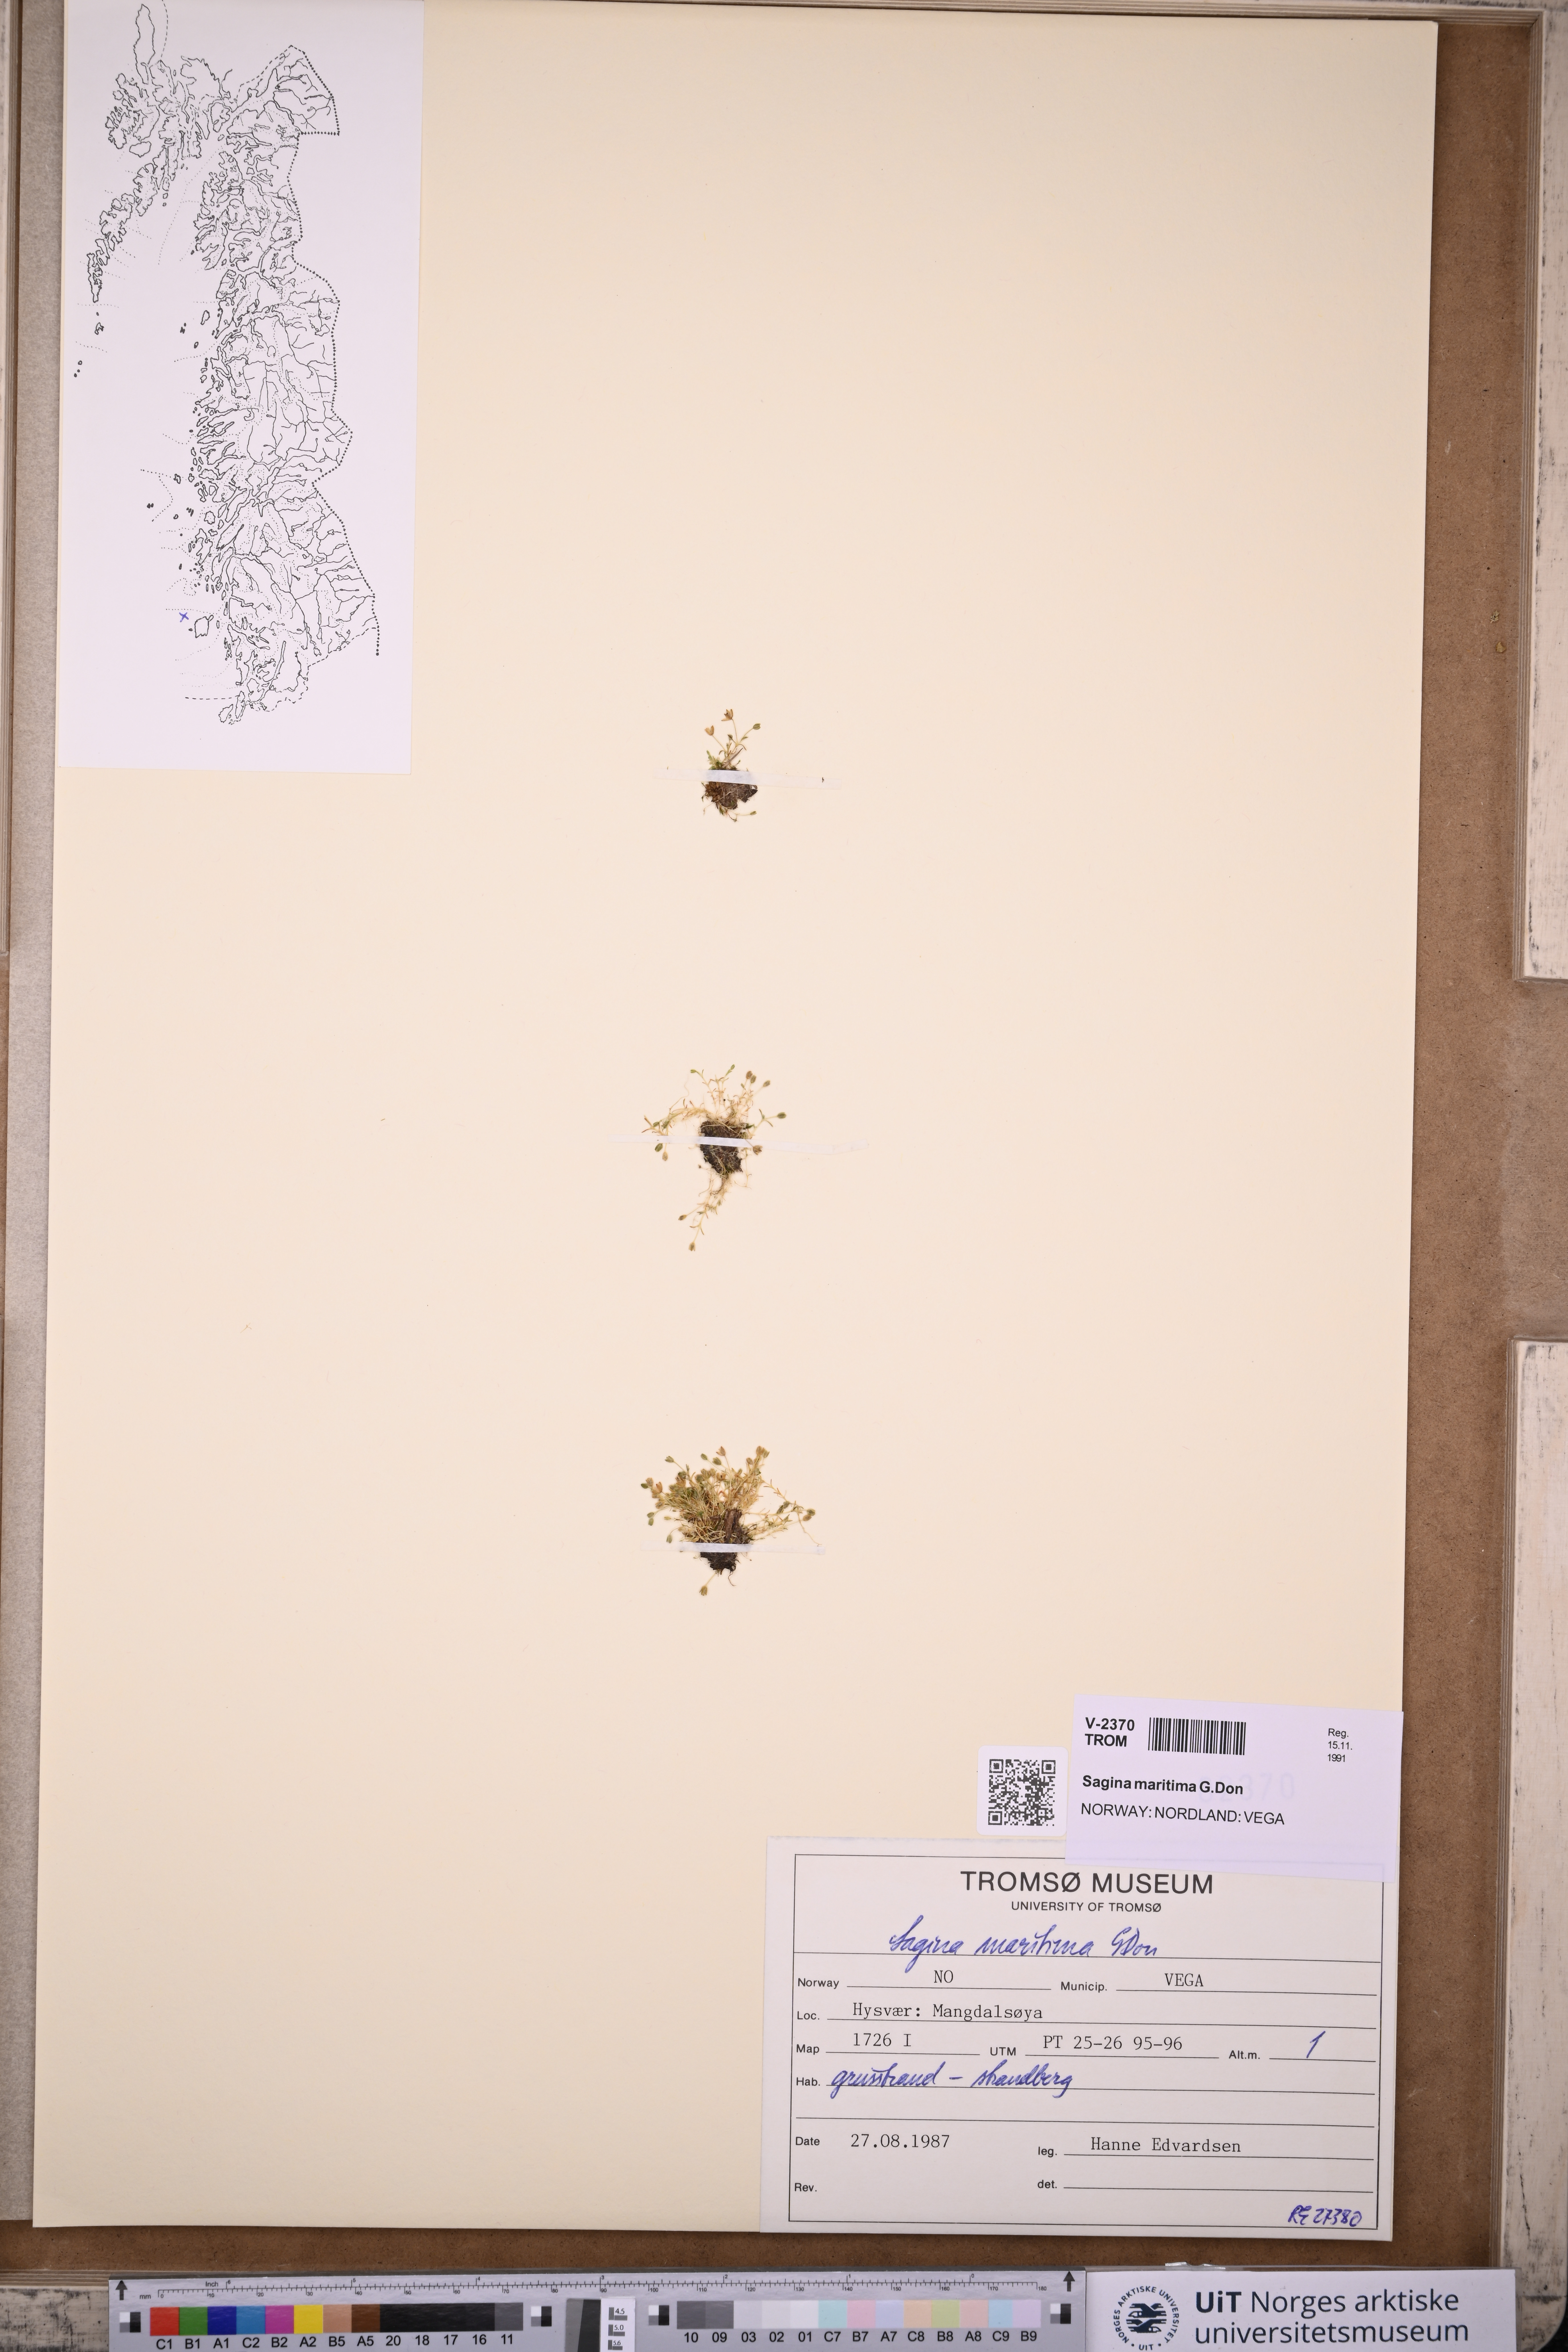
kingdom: Plantae
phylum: Tracheophyta
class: Magnoliopsida
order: Caryophyllales
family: Caryophyllaceae
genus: Sagina
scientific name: Sagina maritima
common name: Sea pearlwort
